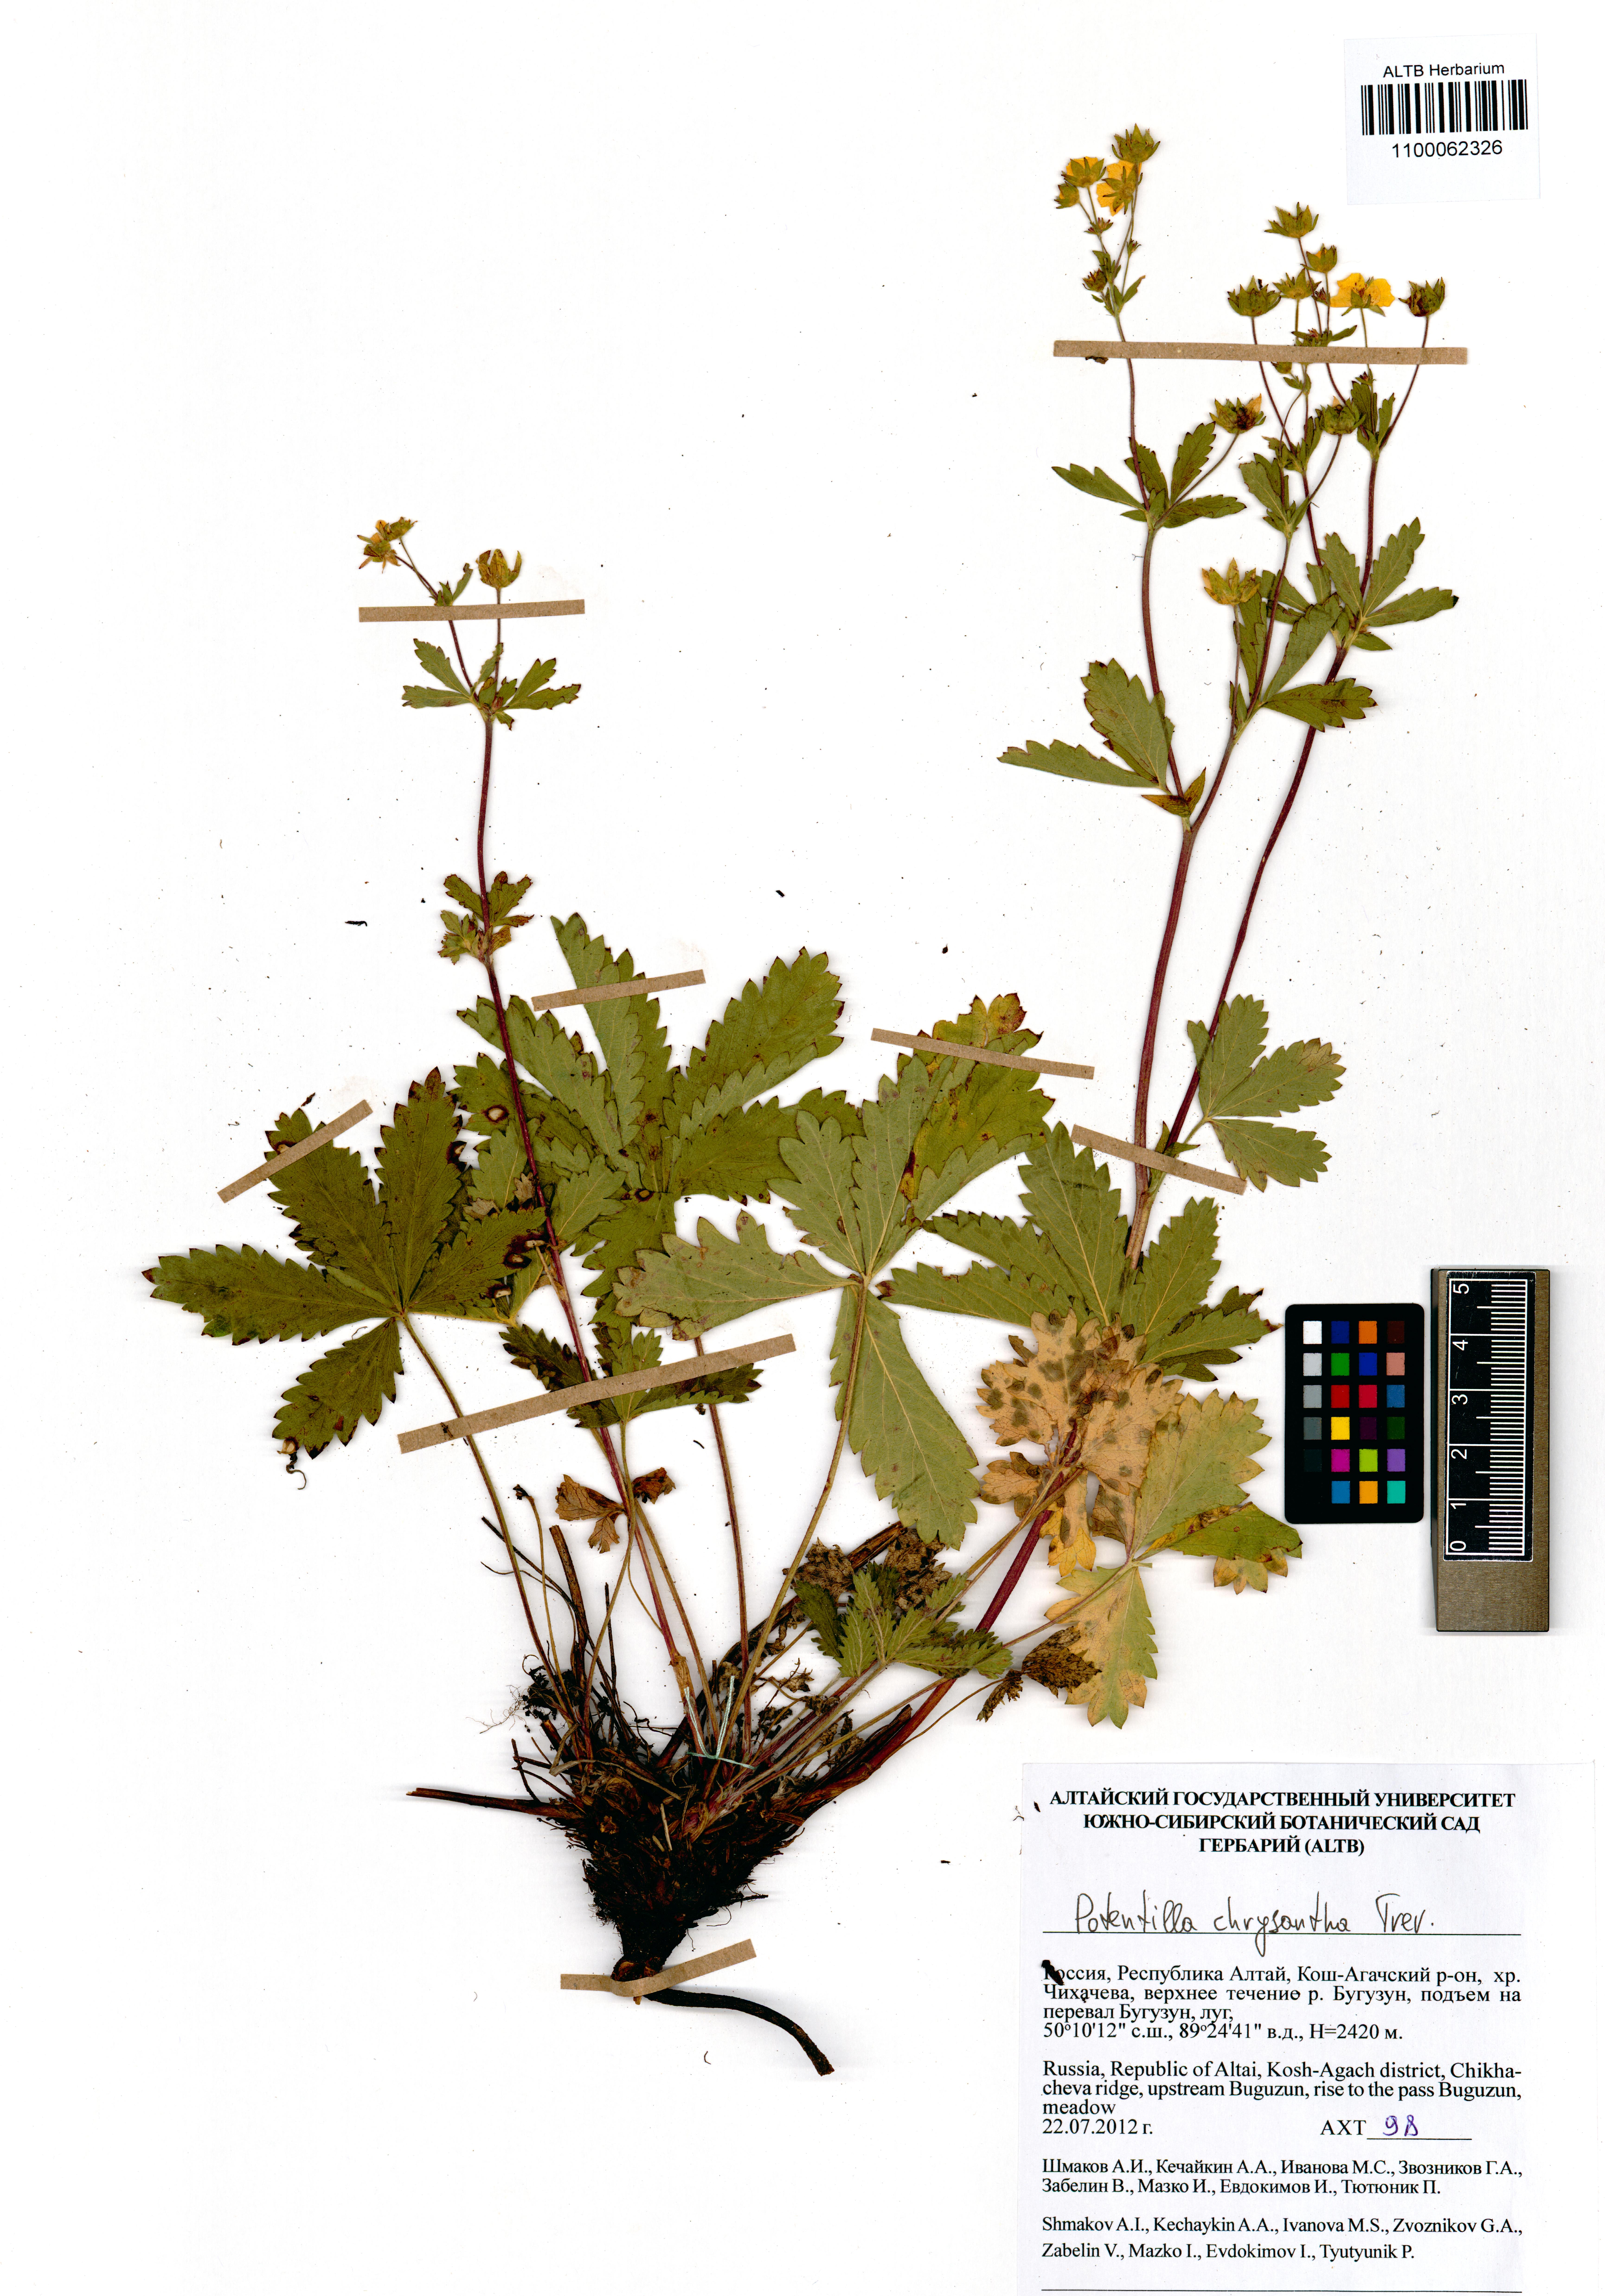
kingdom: Plantae
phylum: Tracheophyta
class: Magnoliopsida
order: Rosales
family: Rosaceae
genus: Potentilla
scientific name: Potentilla chrysantha
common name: Thuringian cinquefoil
